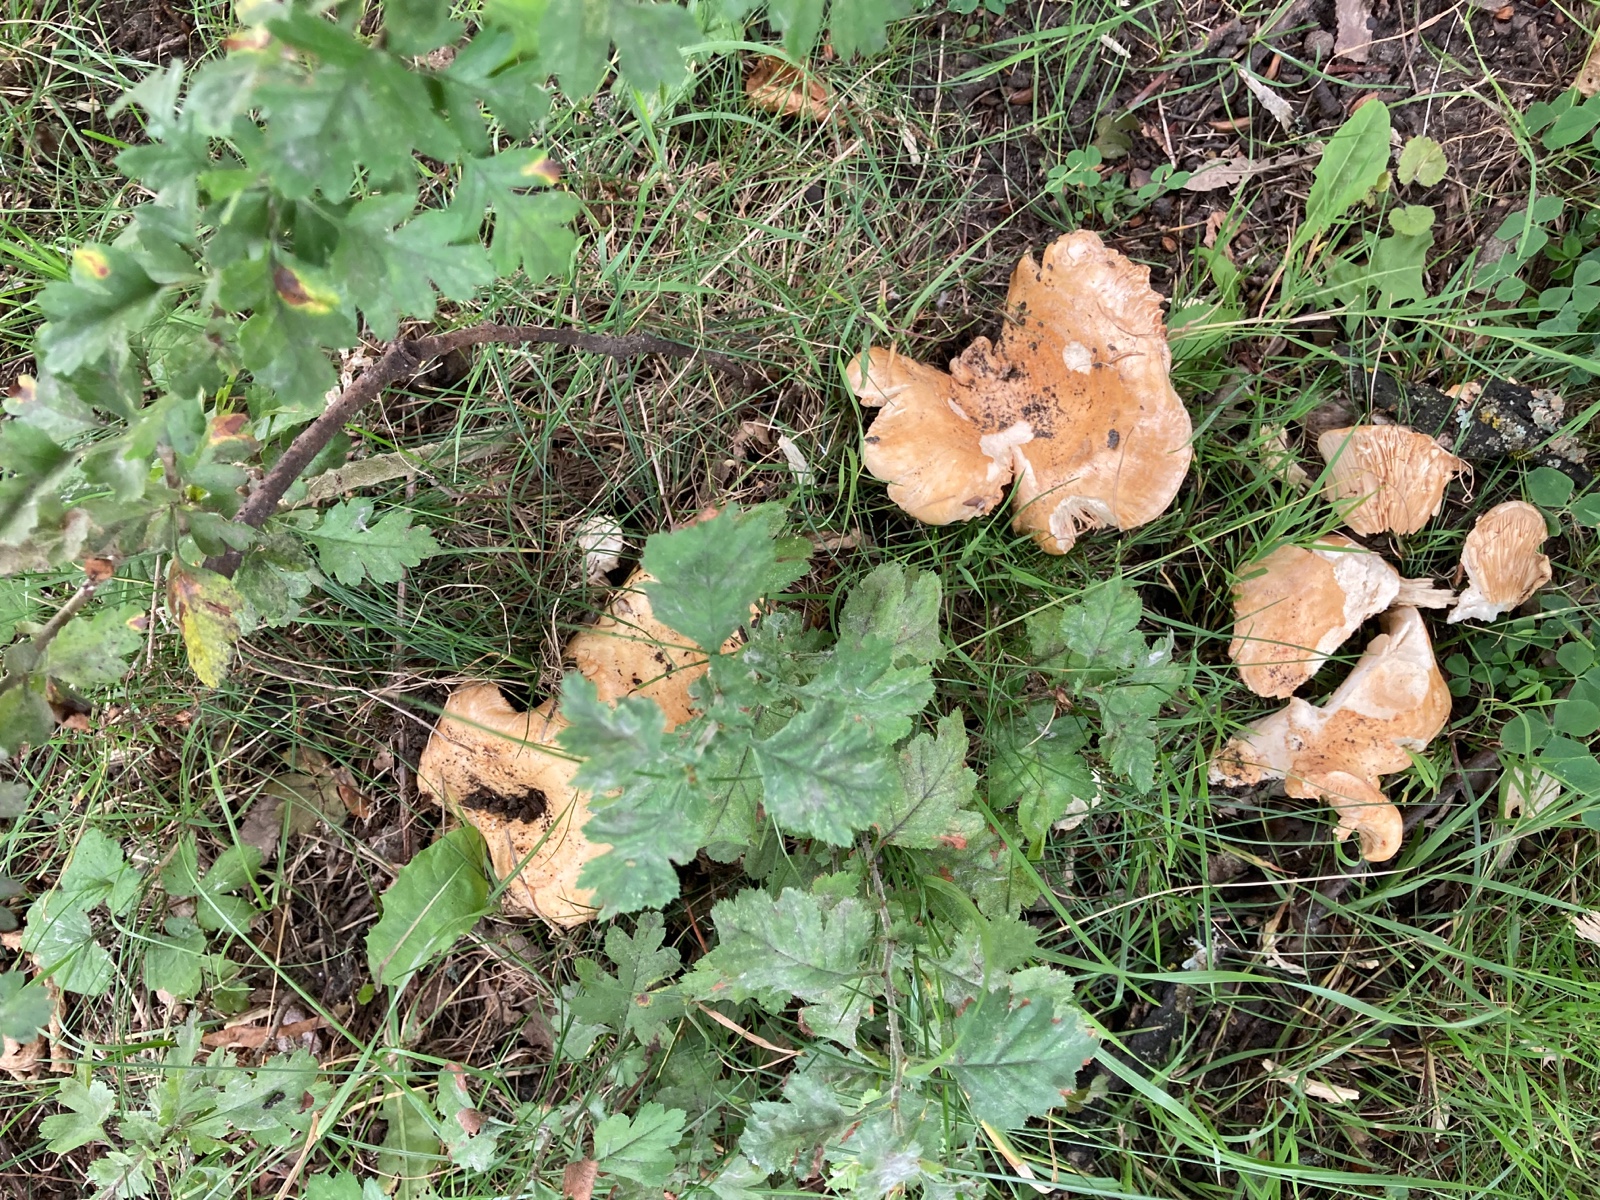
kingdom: Fungi
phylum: Basidiomycota
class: Agaricomycetes
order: Russulales
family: Russulaceae
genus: Lactarius
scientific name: Lactarius evosmus
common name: bæltet mælkehat
